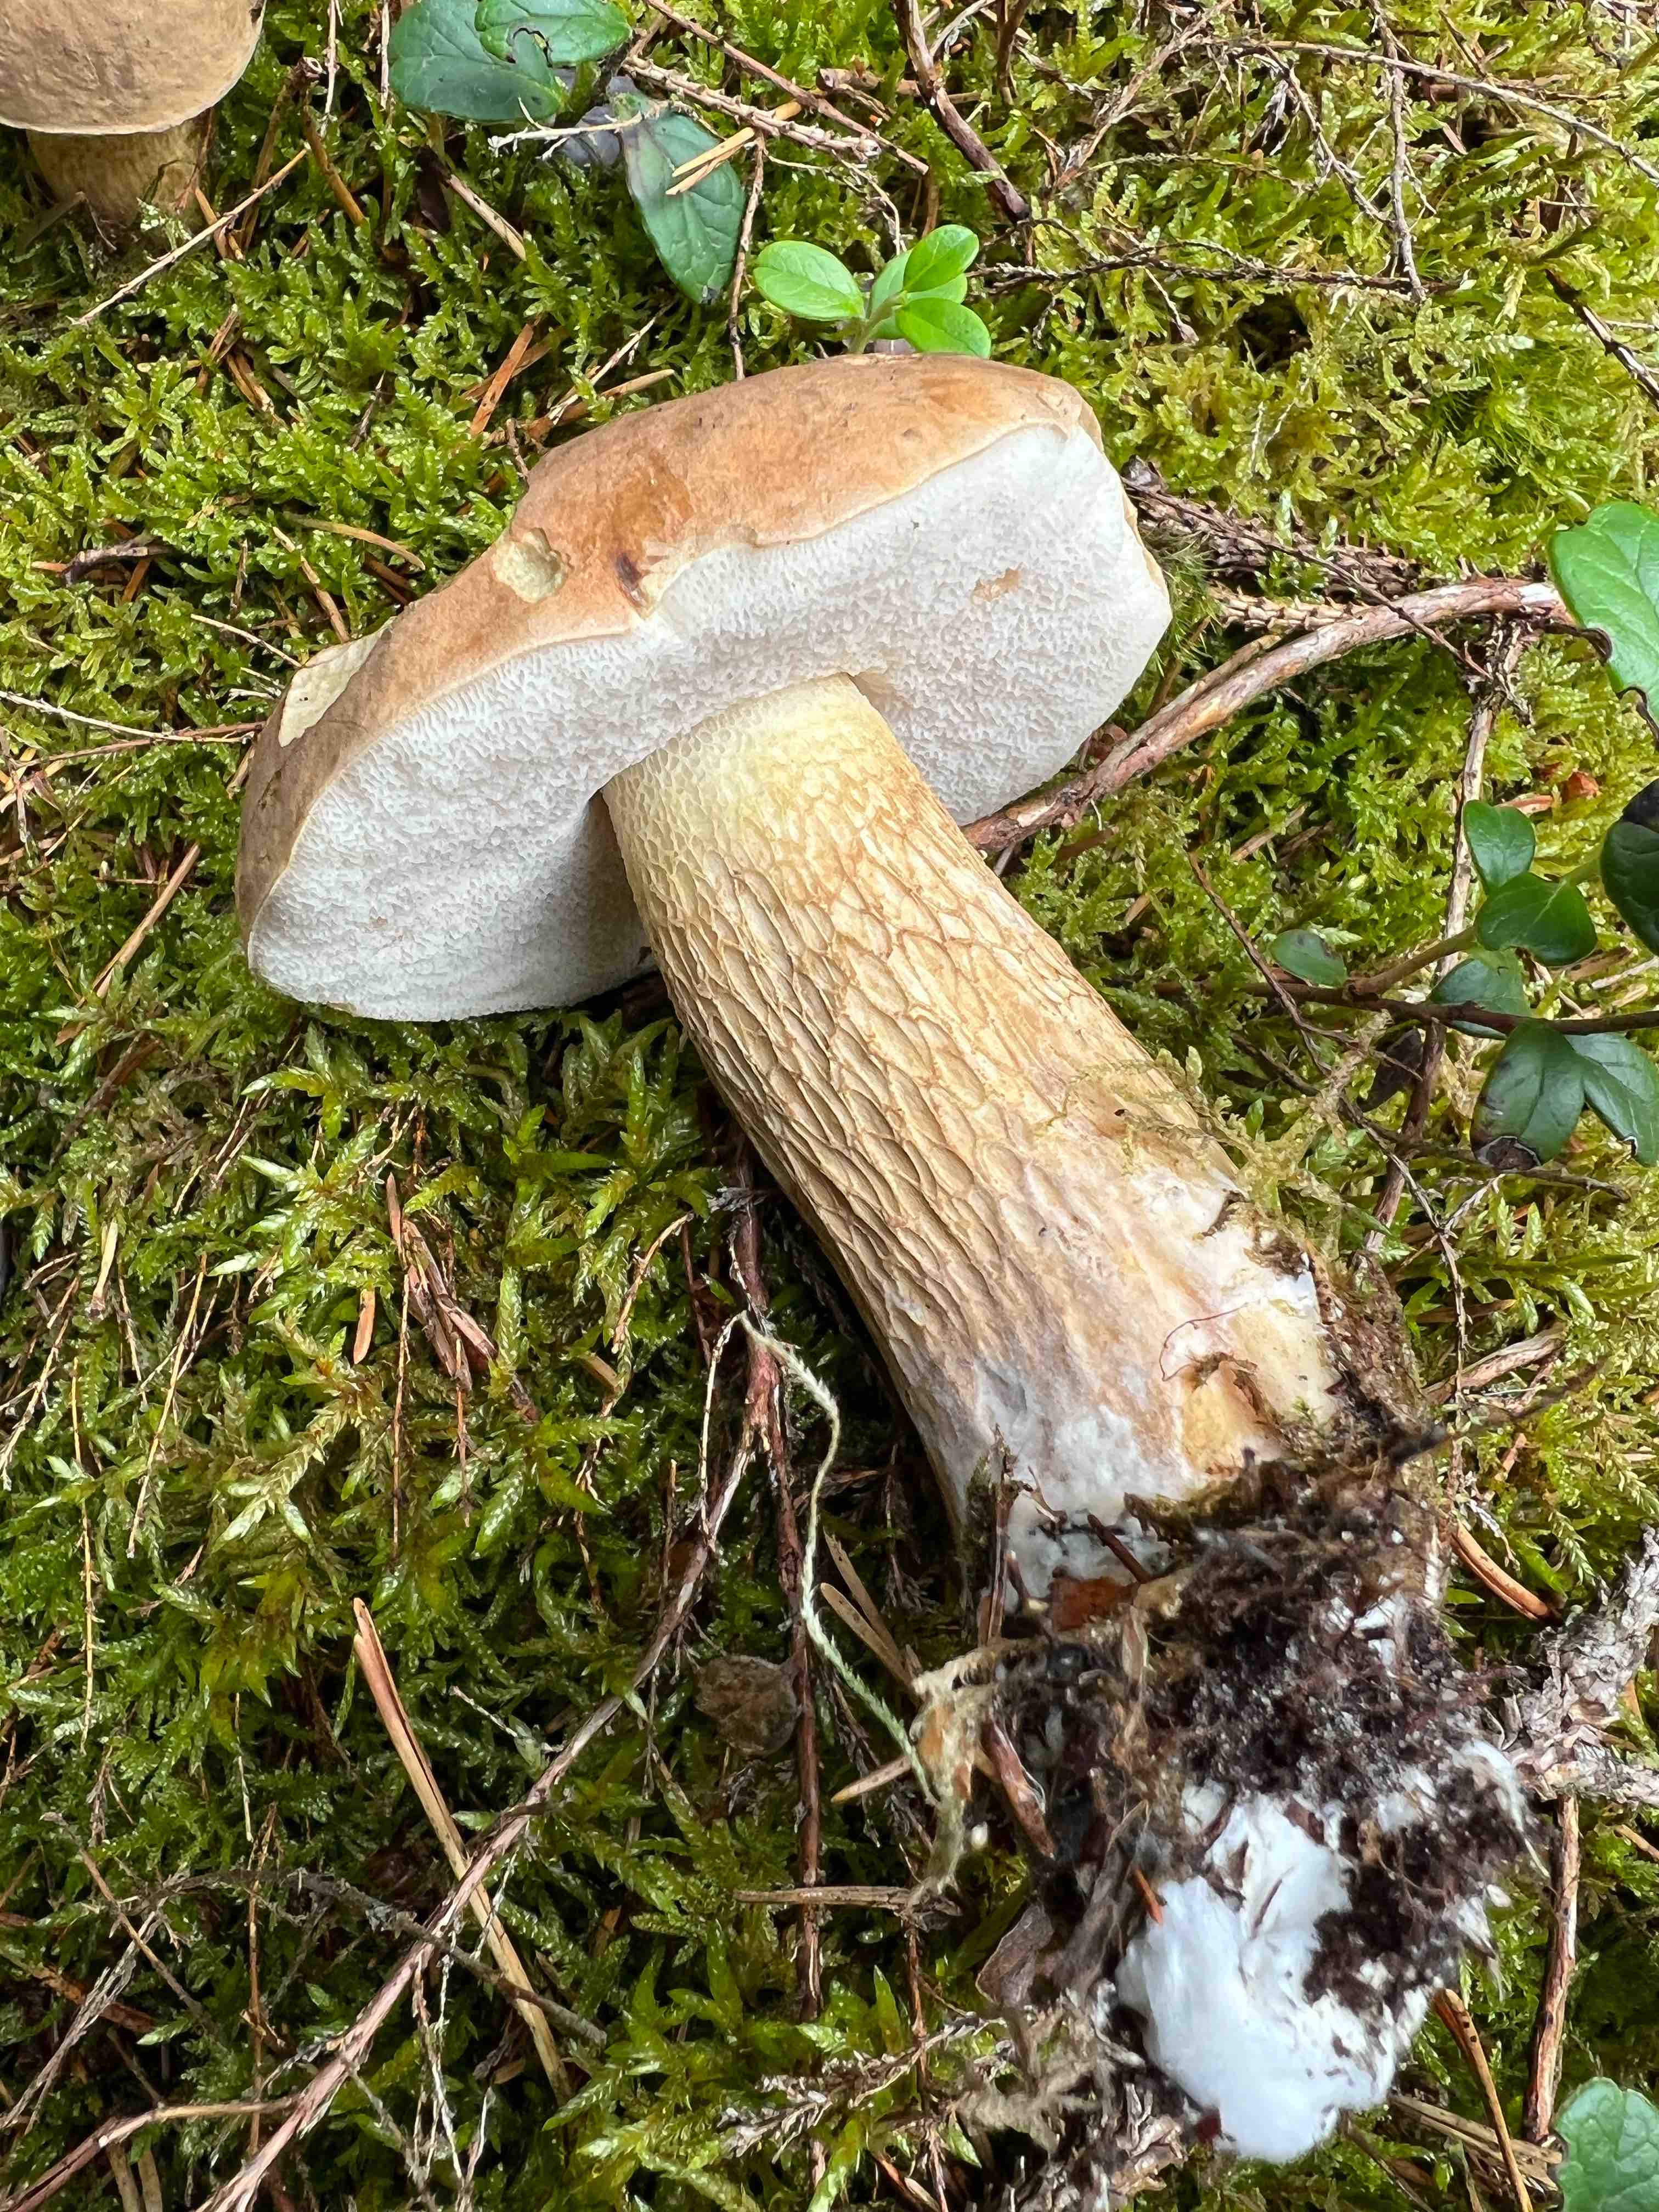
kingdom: Fungi
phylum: Basidiomycota
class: Agaricomycetes
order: Boletales
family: Boletaceae
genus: Tylopilus
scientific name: Tylopilus felleus
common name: galderørhat
